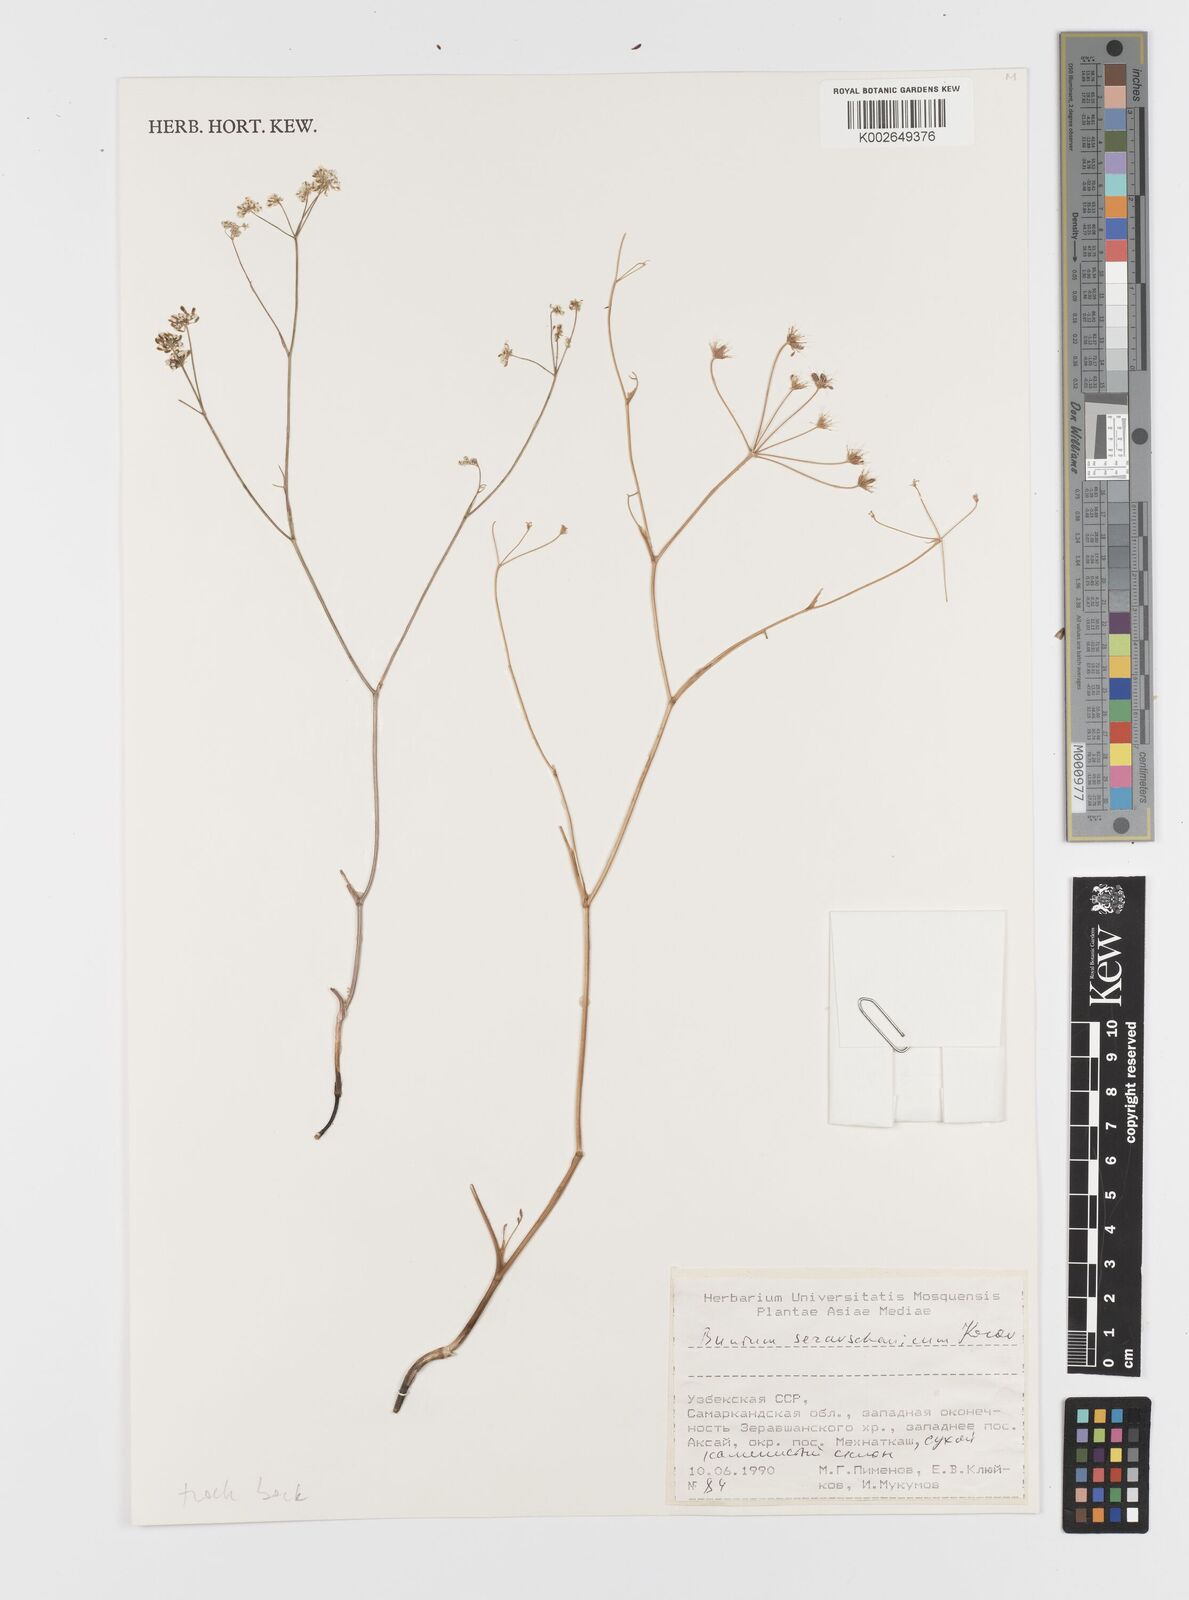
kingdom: Plantae
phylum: Tracheophyta
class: Magnoliopsida
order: Apiales
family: Apiaceae
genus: Elwendia
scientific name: Elwendia seravschanica
